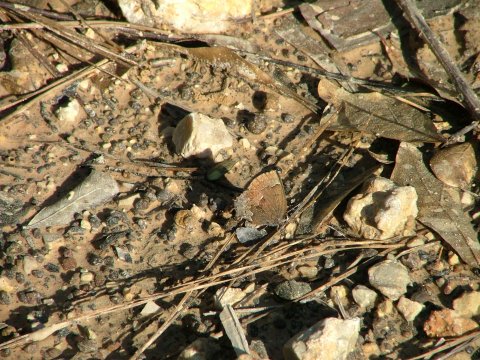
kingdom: Animalia
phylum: Arthropoda
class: Insecta
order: Lepidoptera
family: Lycaenidae
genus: Incisalia
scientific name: Incisalia henrici
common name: Henry's Elfin
